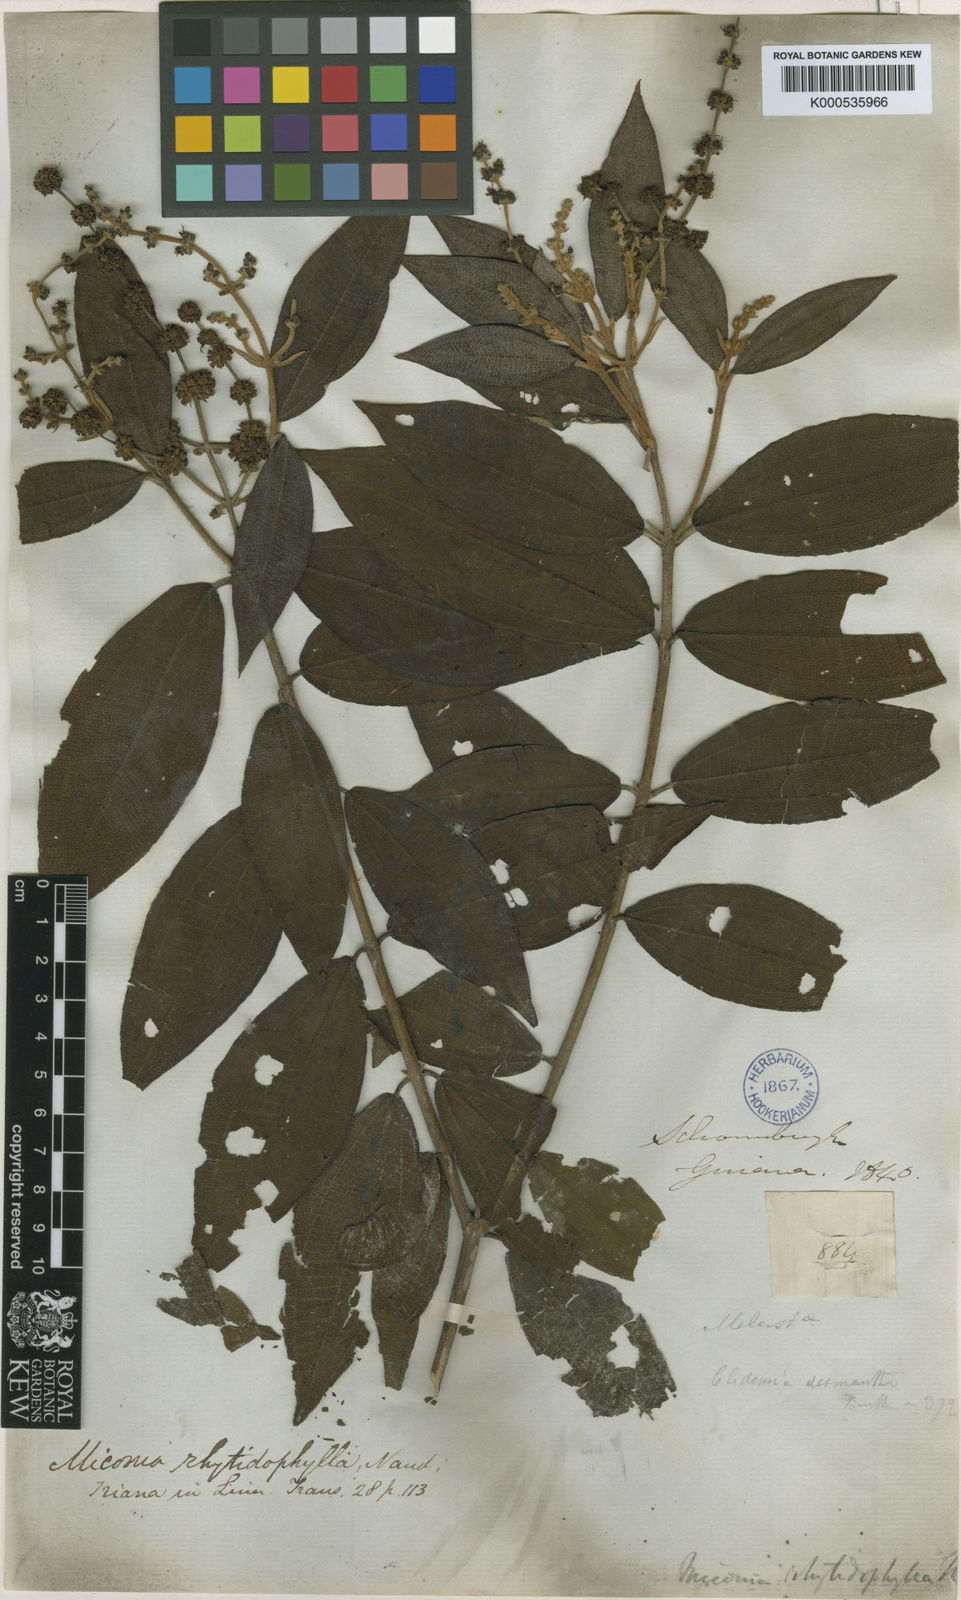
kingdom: Plantae
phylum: Tracheophyta
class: Magnoliopsida
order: Myrtales
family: Melastomataceae
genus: Miconia
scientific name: Miconia rhytidophylla
